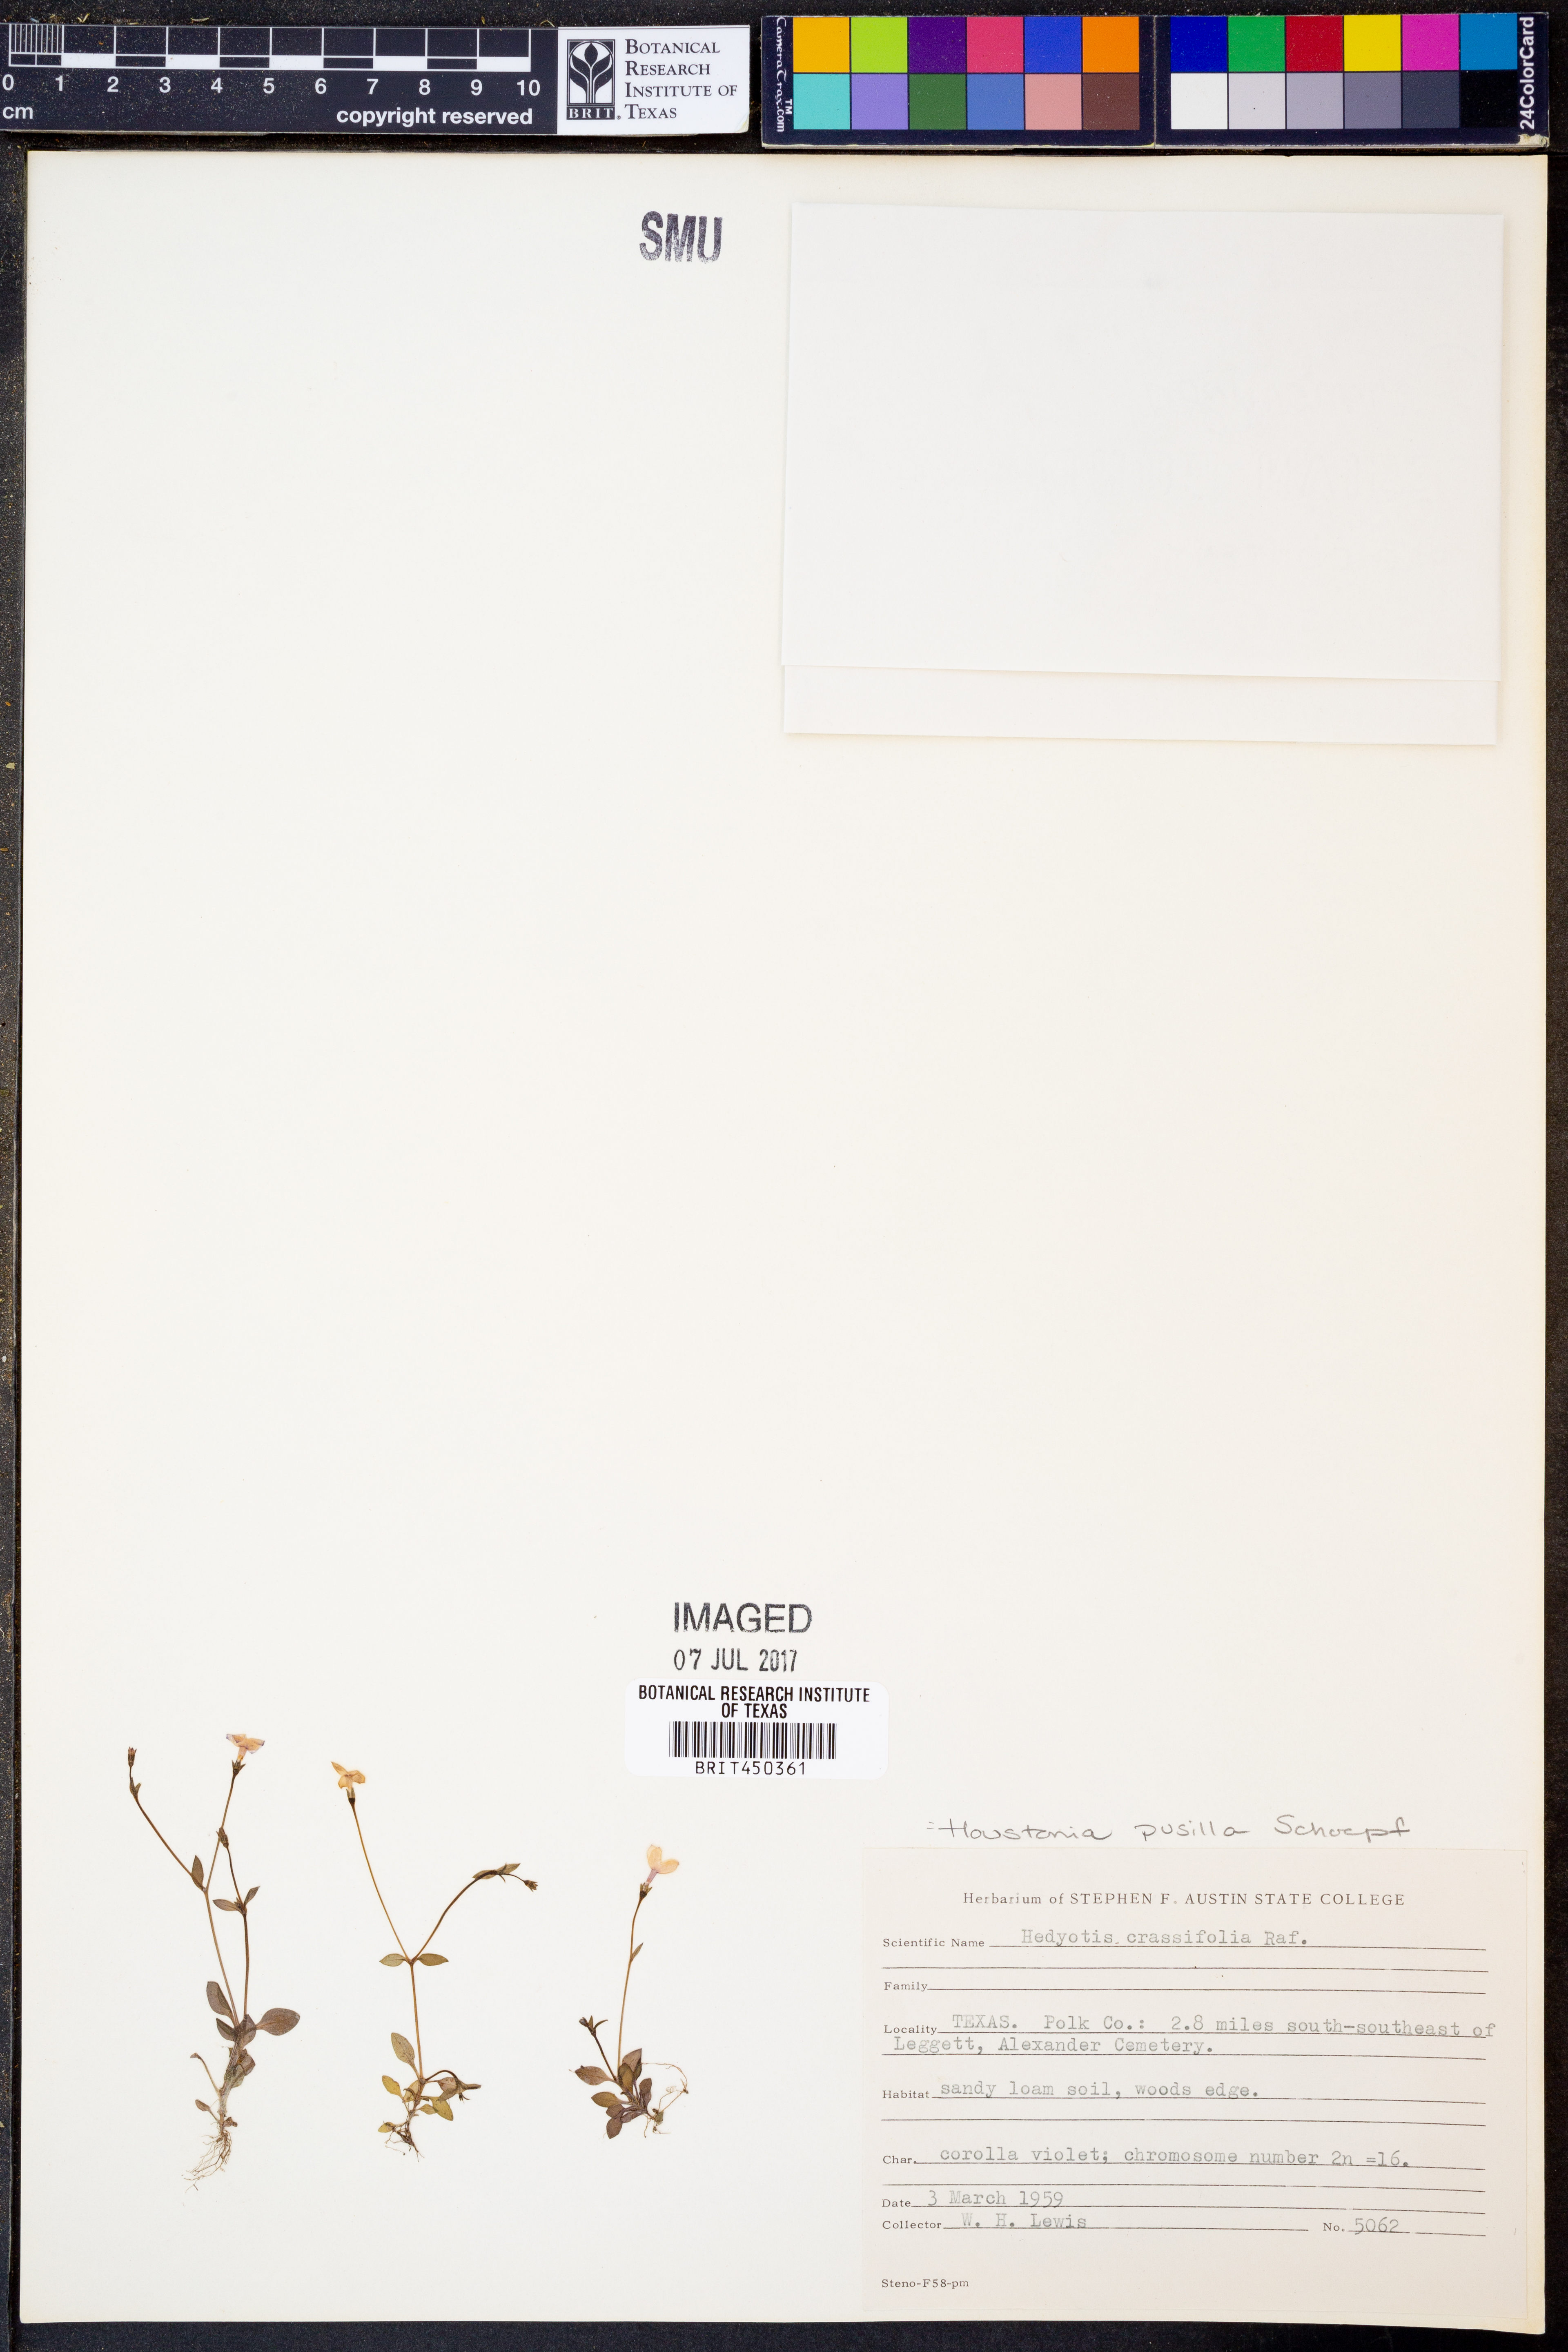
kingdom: Plantae
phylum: Tracheophyta
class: Magnoliopsida
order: Gentianales
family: Rubiaceae
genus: Houstonia
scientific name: Houstonia pusilla
